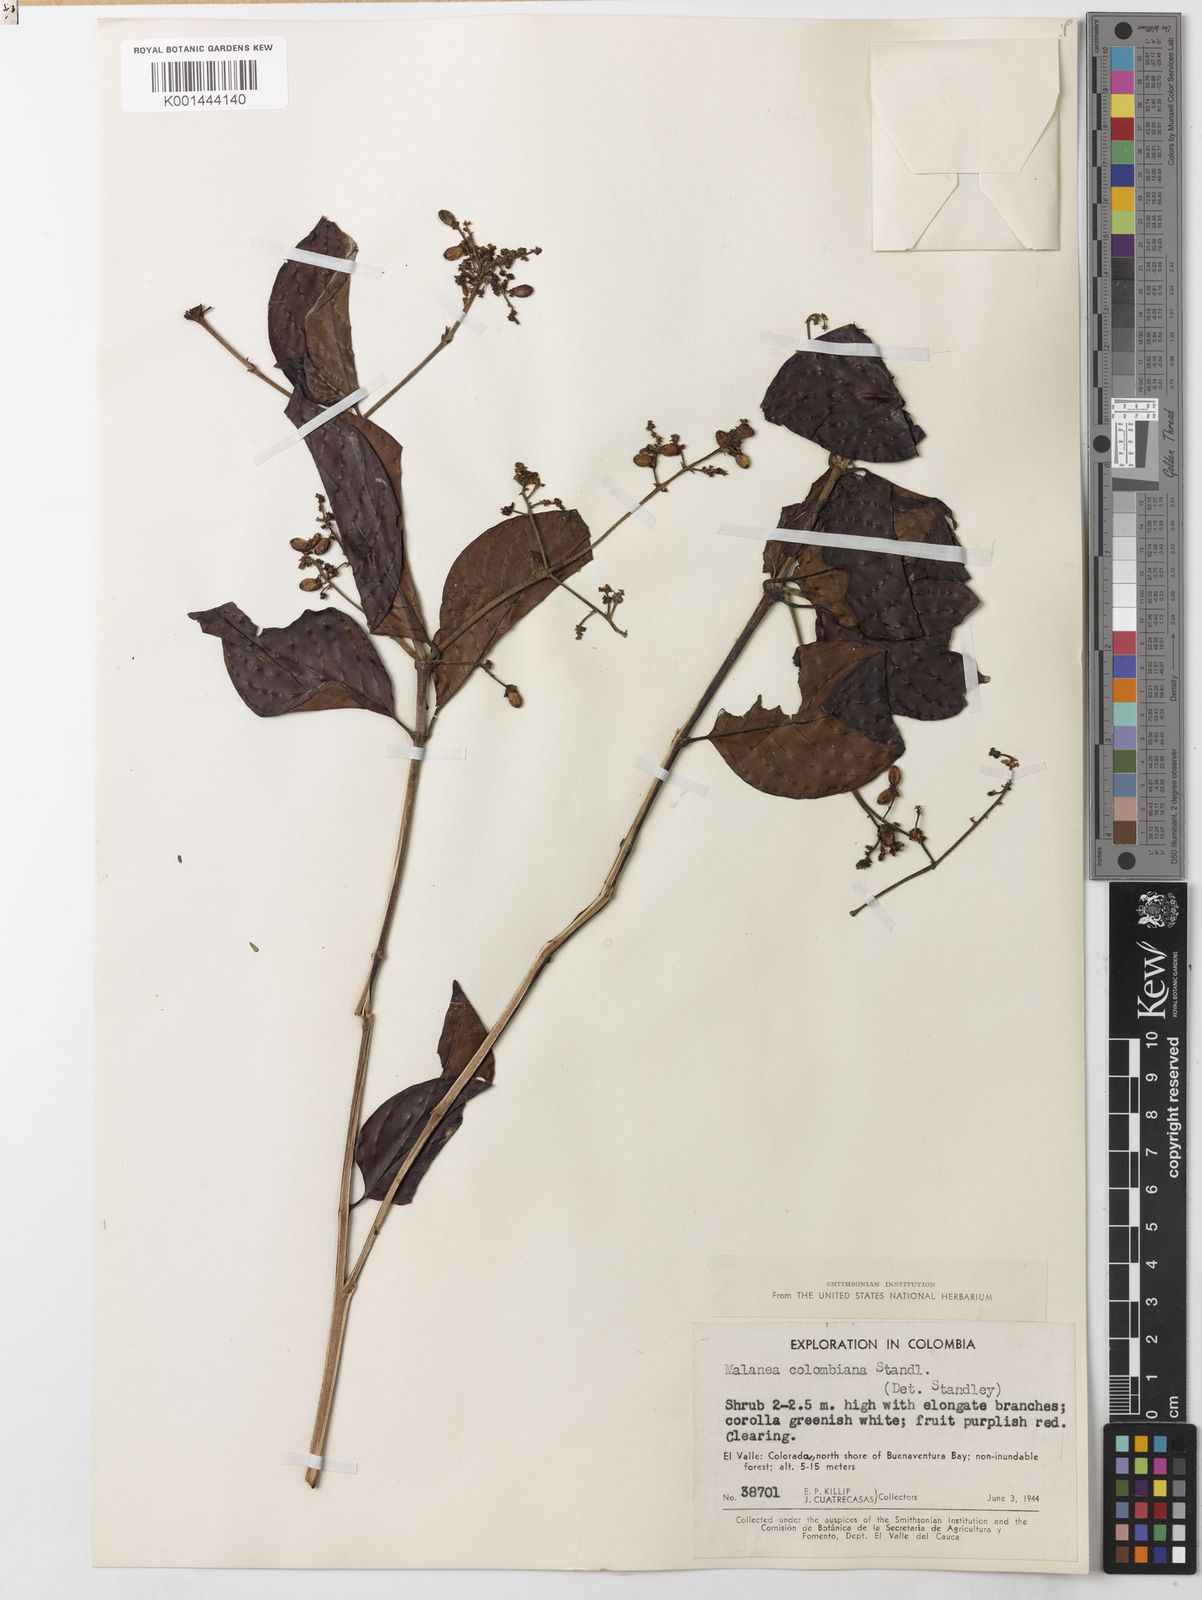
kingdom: Plantae
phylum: Tracheophyta
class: Magnoliopsida
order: Gentianales
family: Rubiaceae
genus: Malanea
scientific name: Malanea erecta
